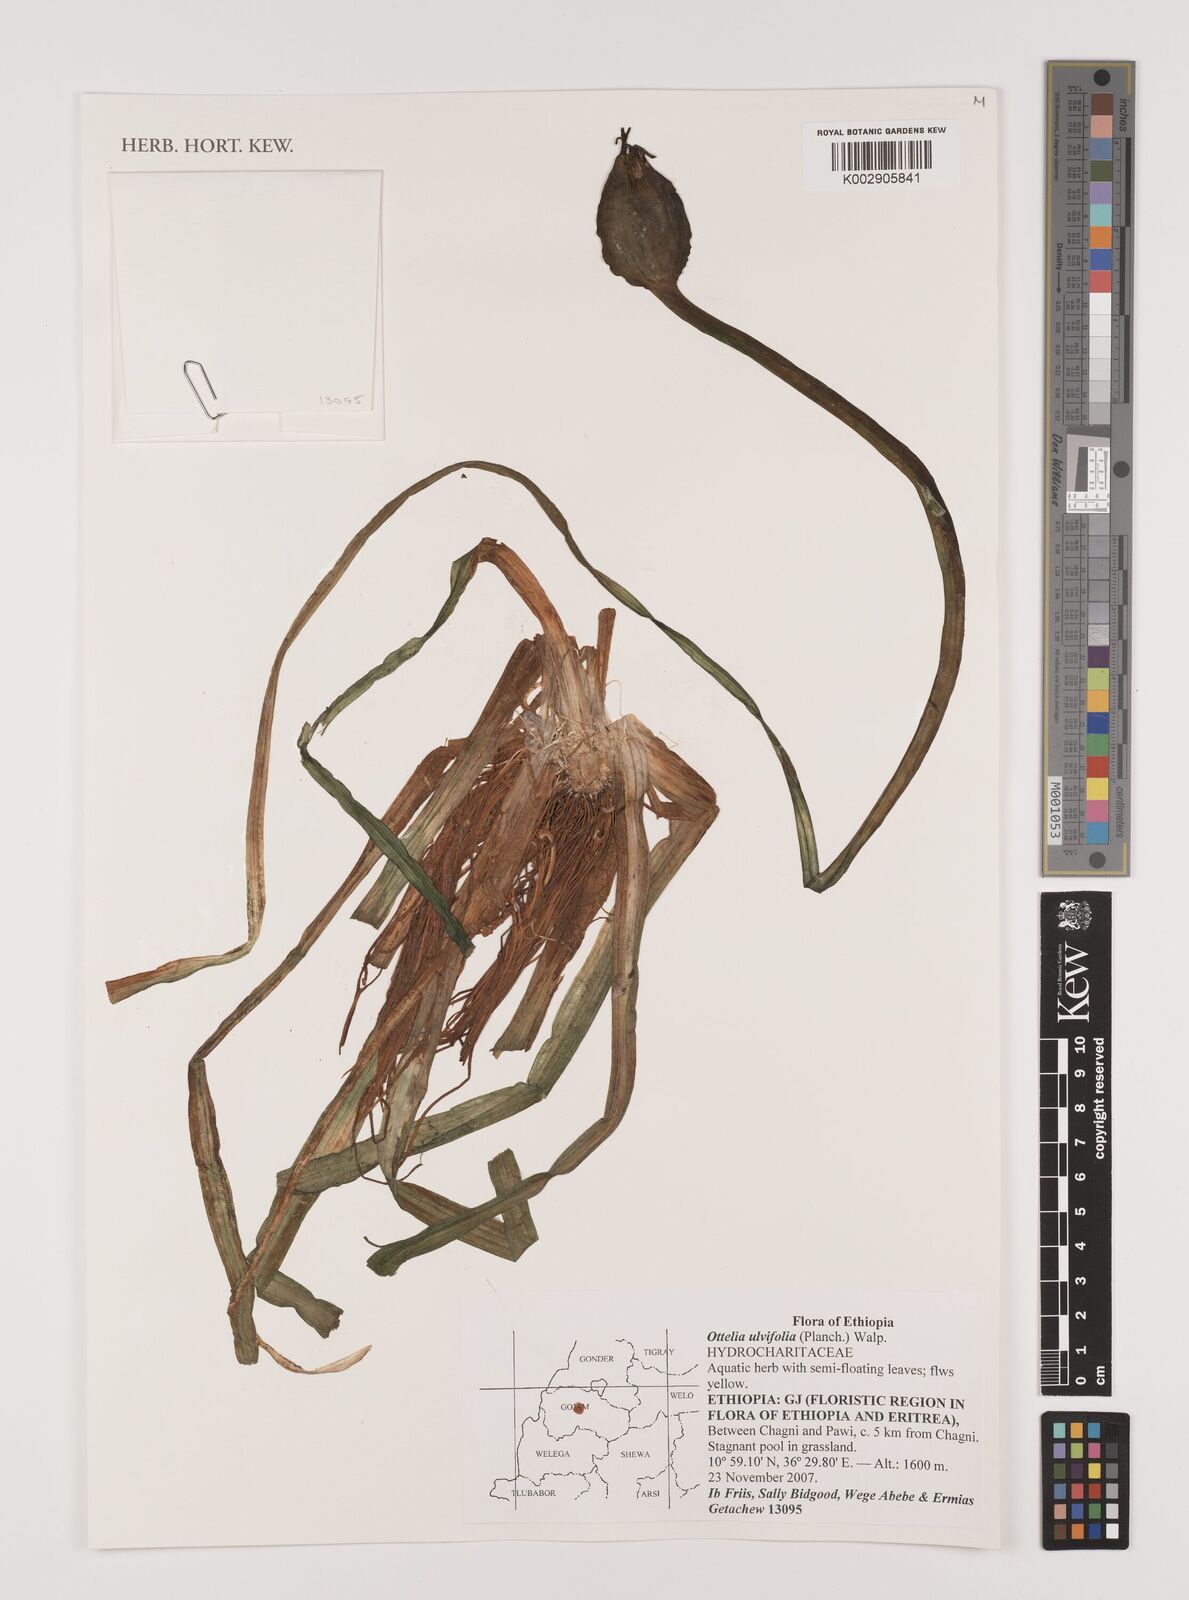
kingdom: Plantae
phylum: Tracheophyta
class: Liliopsida
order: Alismatales
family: Hydrocharitaceae
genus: Ottelia
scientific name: Ottelia ulvifolia
